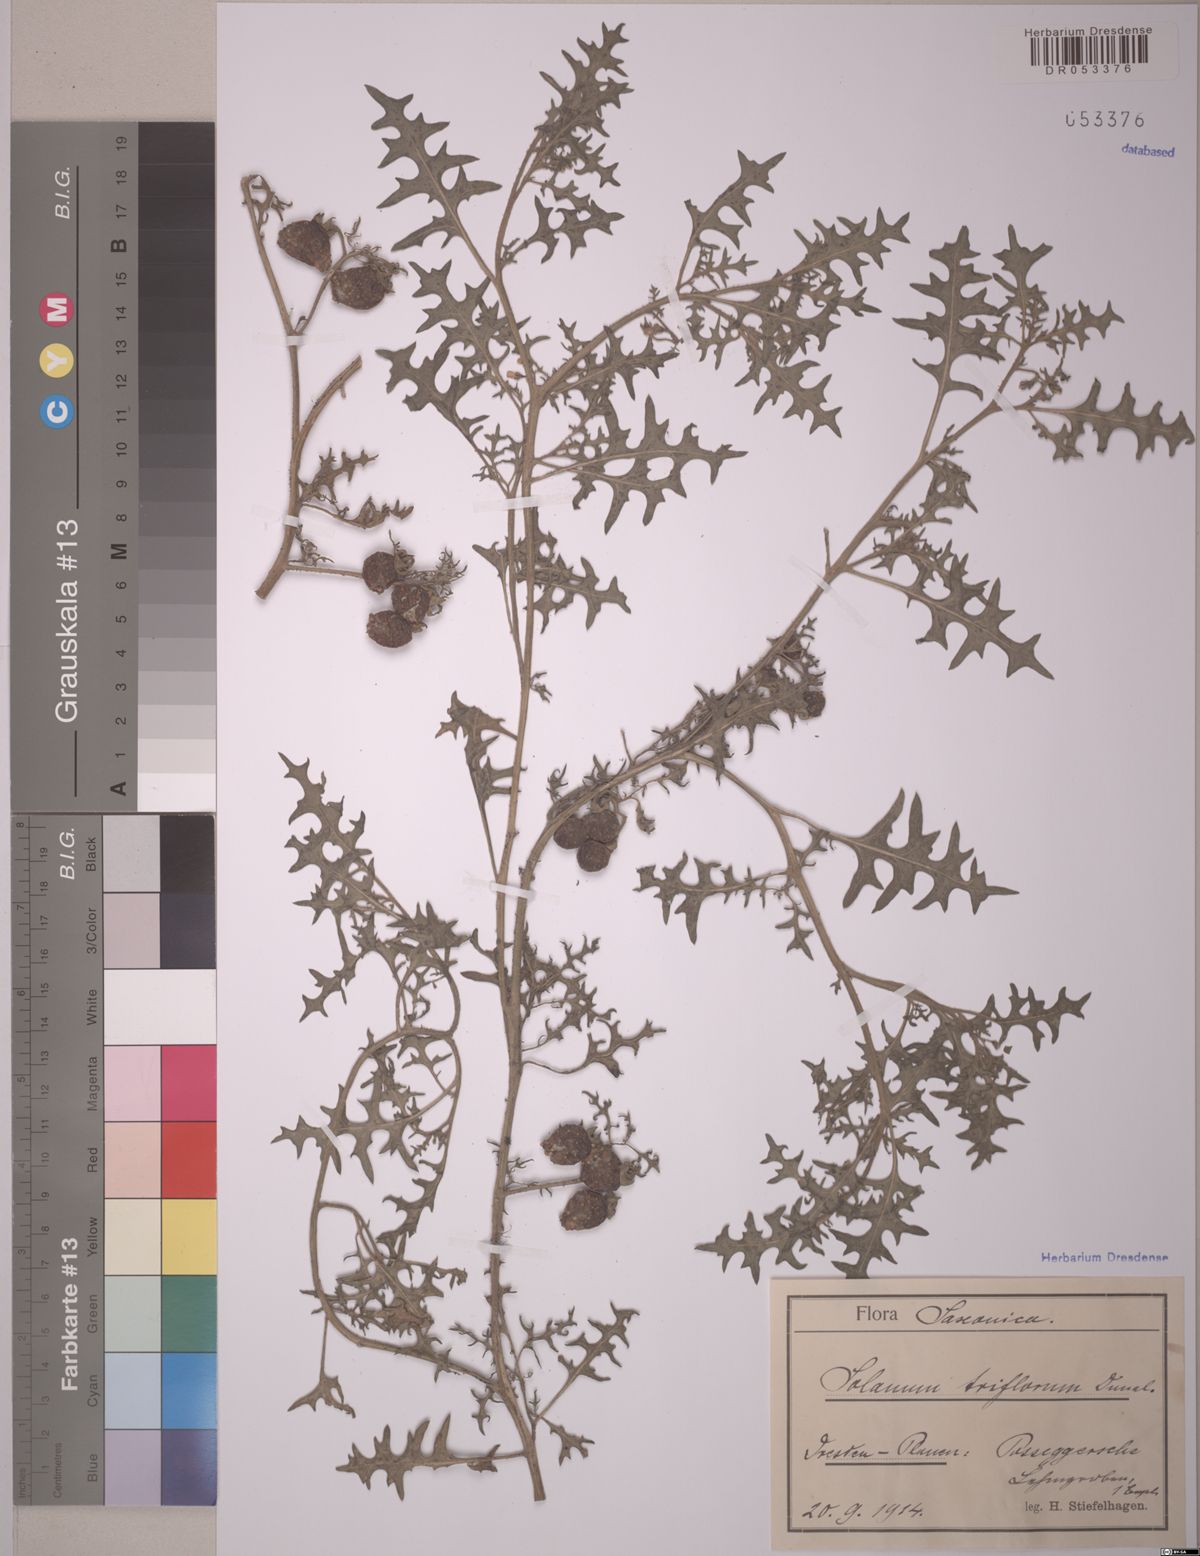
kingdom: Plantae
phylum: Tracheophyta
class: Magnoliopsida
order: Solanales
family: Solanaceae
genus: Solanum
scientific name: Solanum triflorum
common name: Small nightshade
